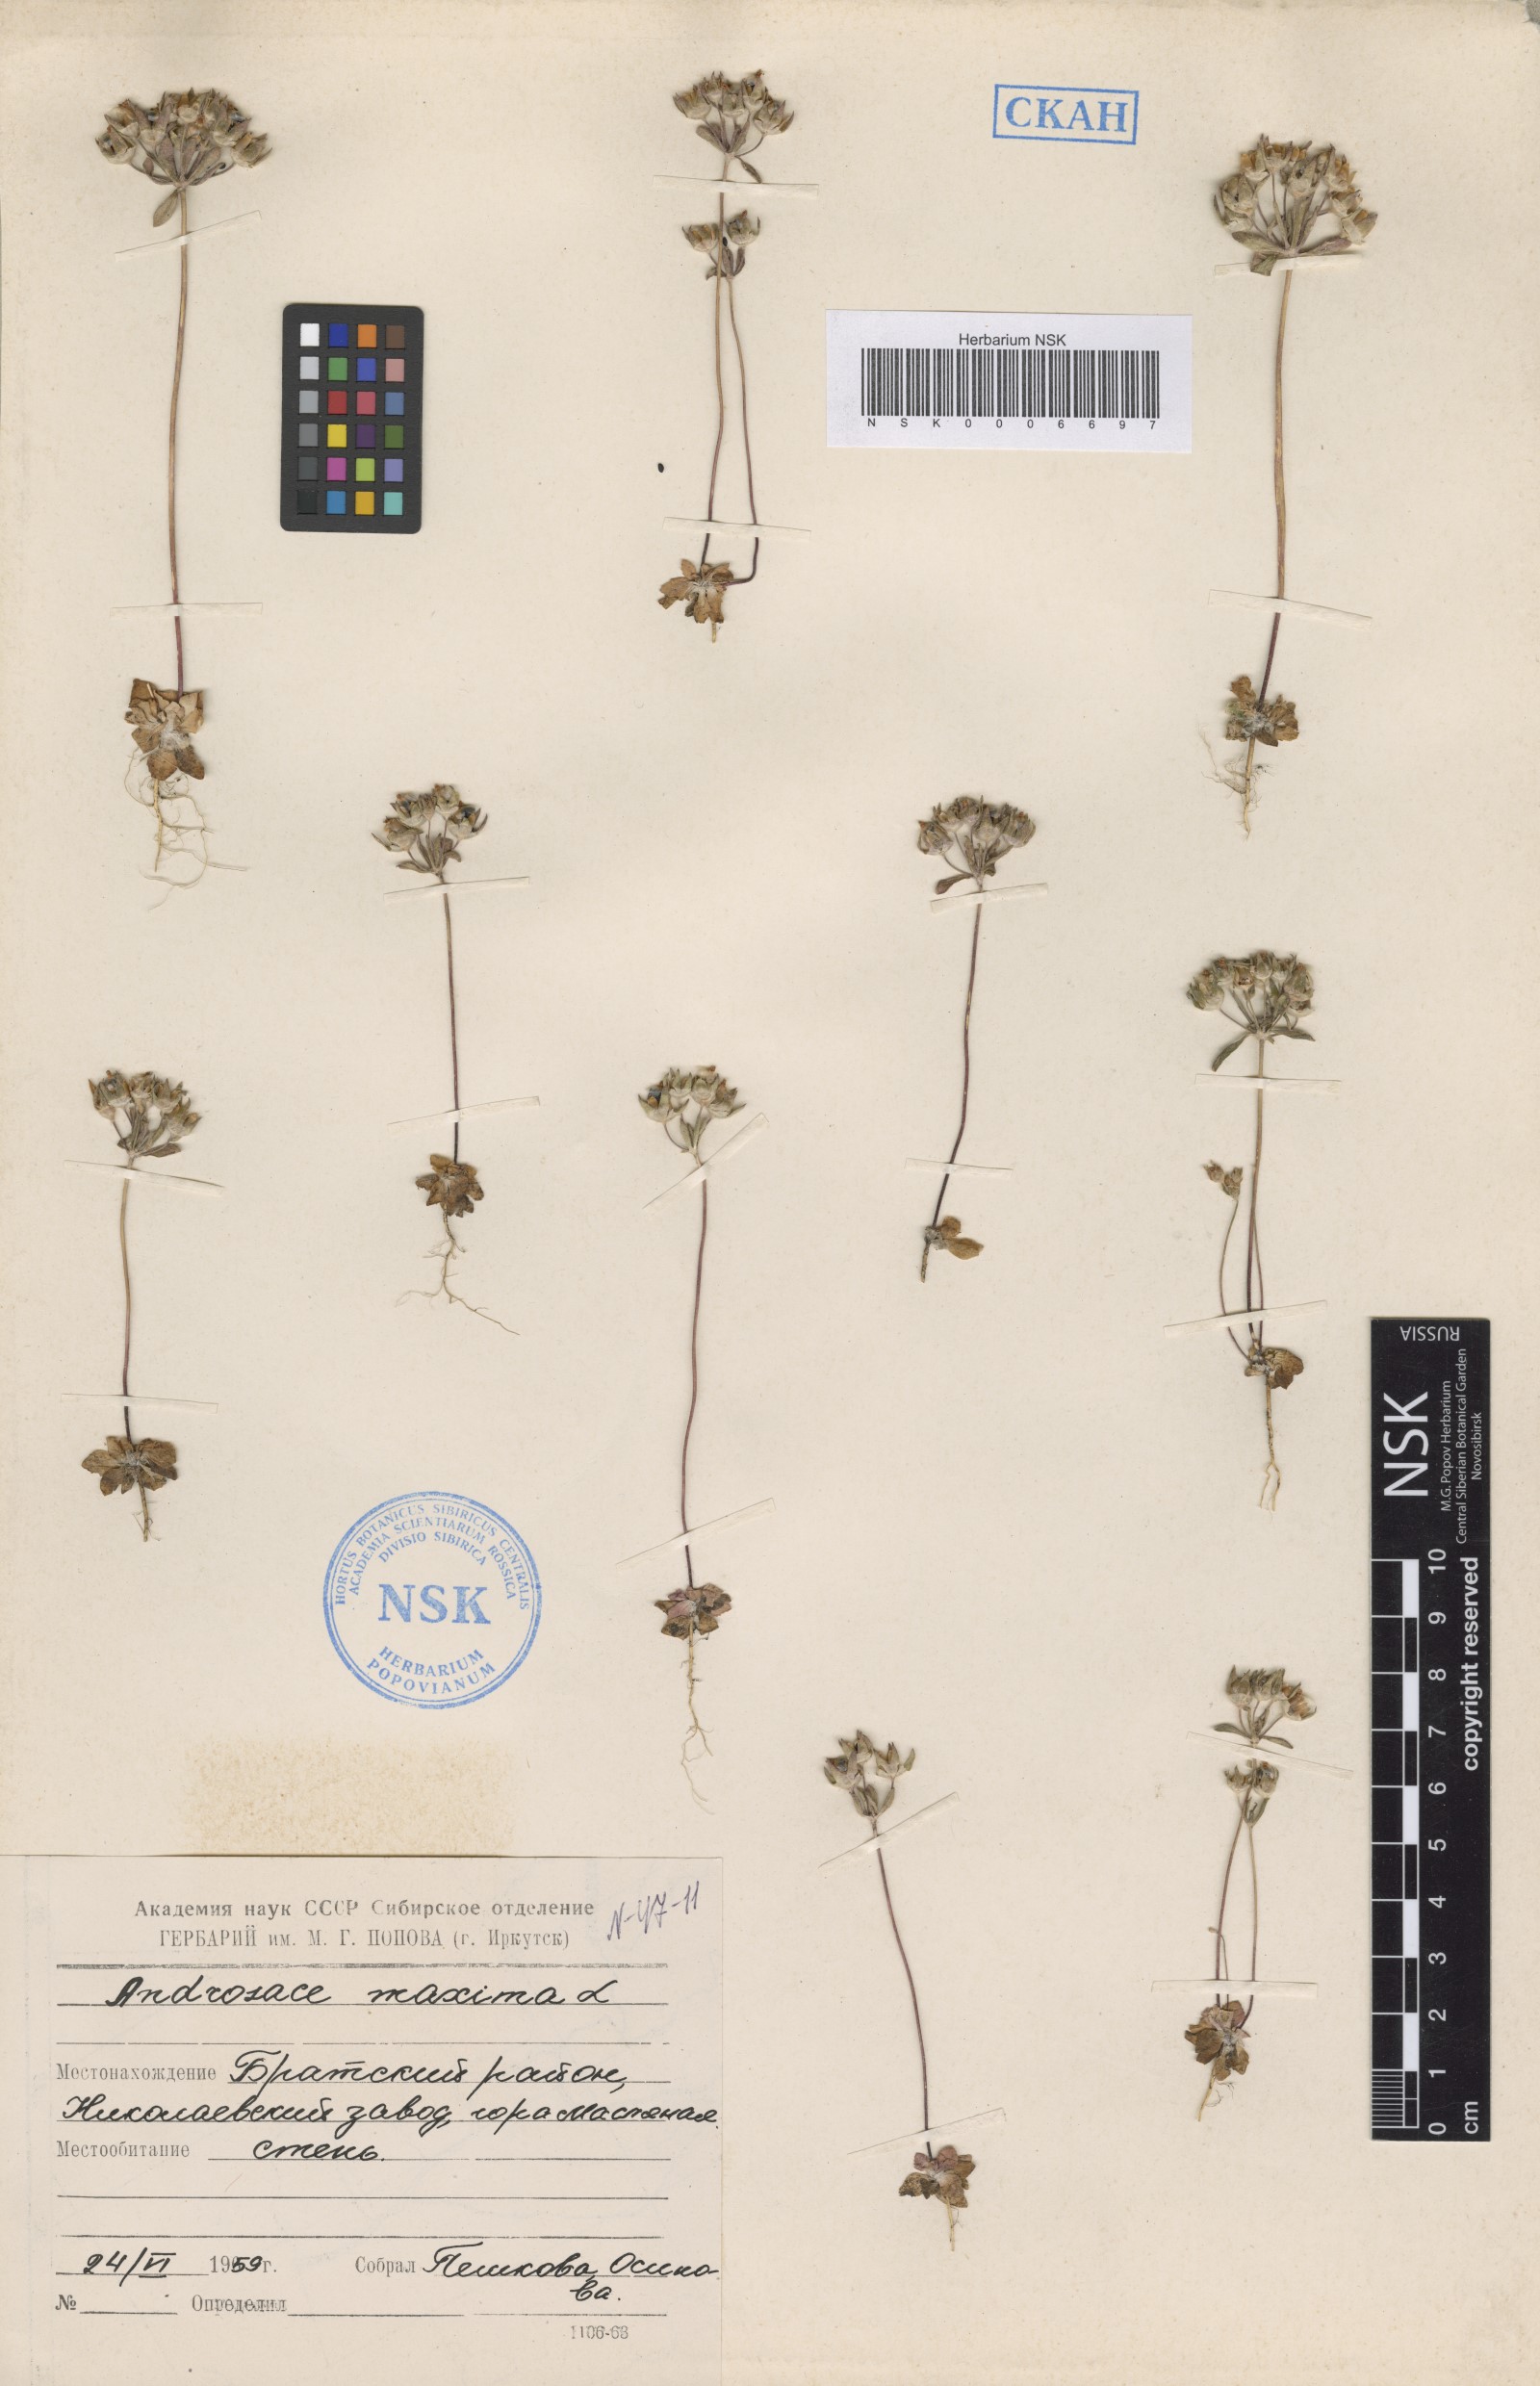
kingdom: Plantae
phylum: Tracheophyta
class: Magnoliopsida
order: Ericales
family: Primulaceae
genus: Androsace
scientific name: Androsace maxima
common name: Annual androsace
